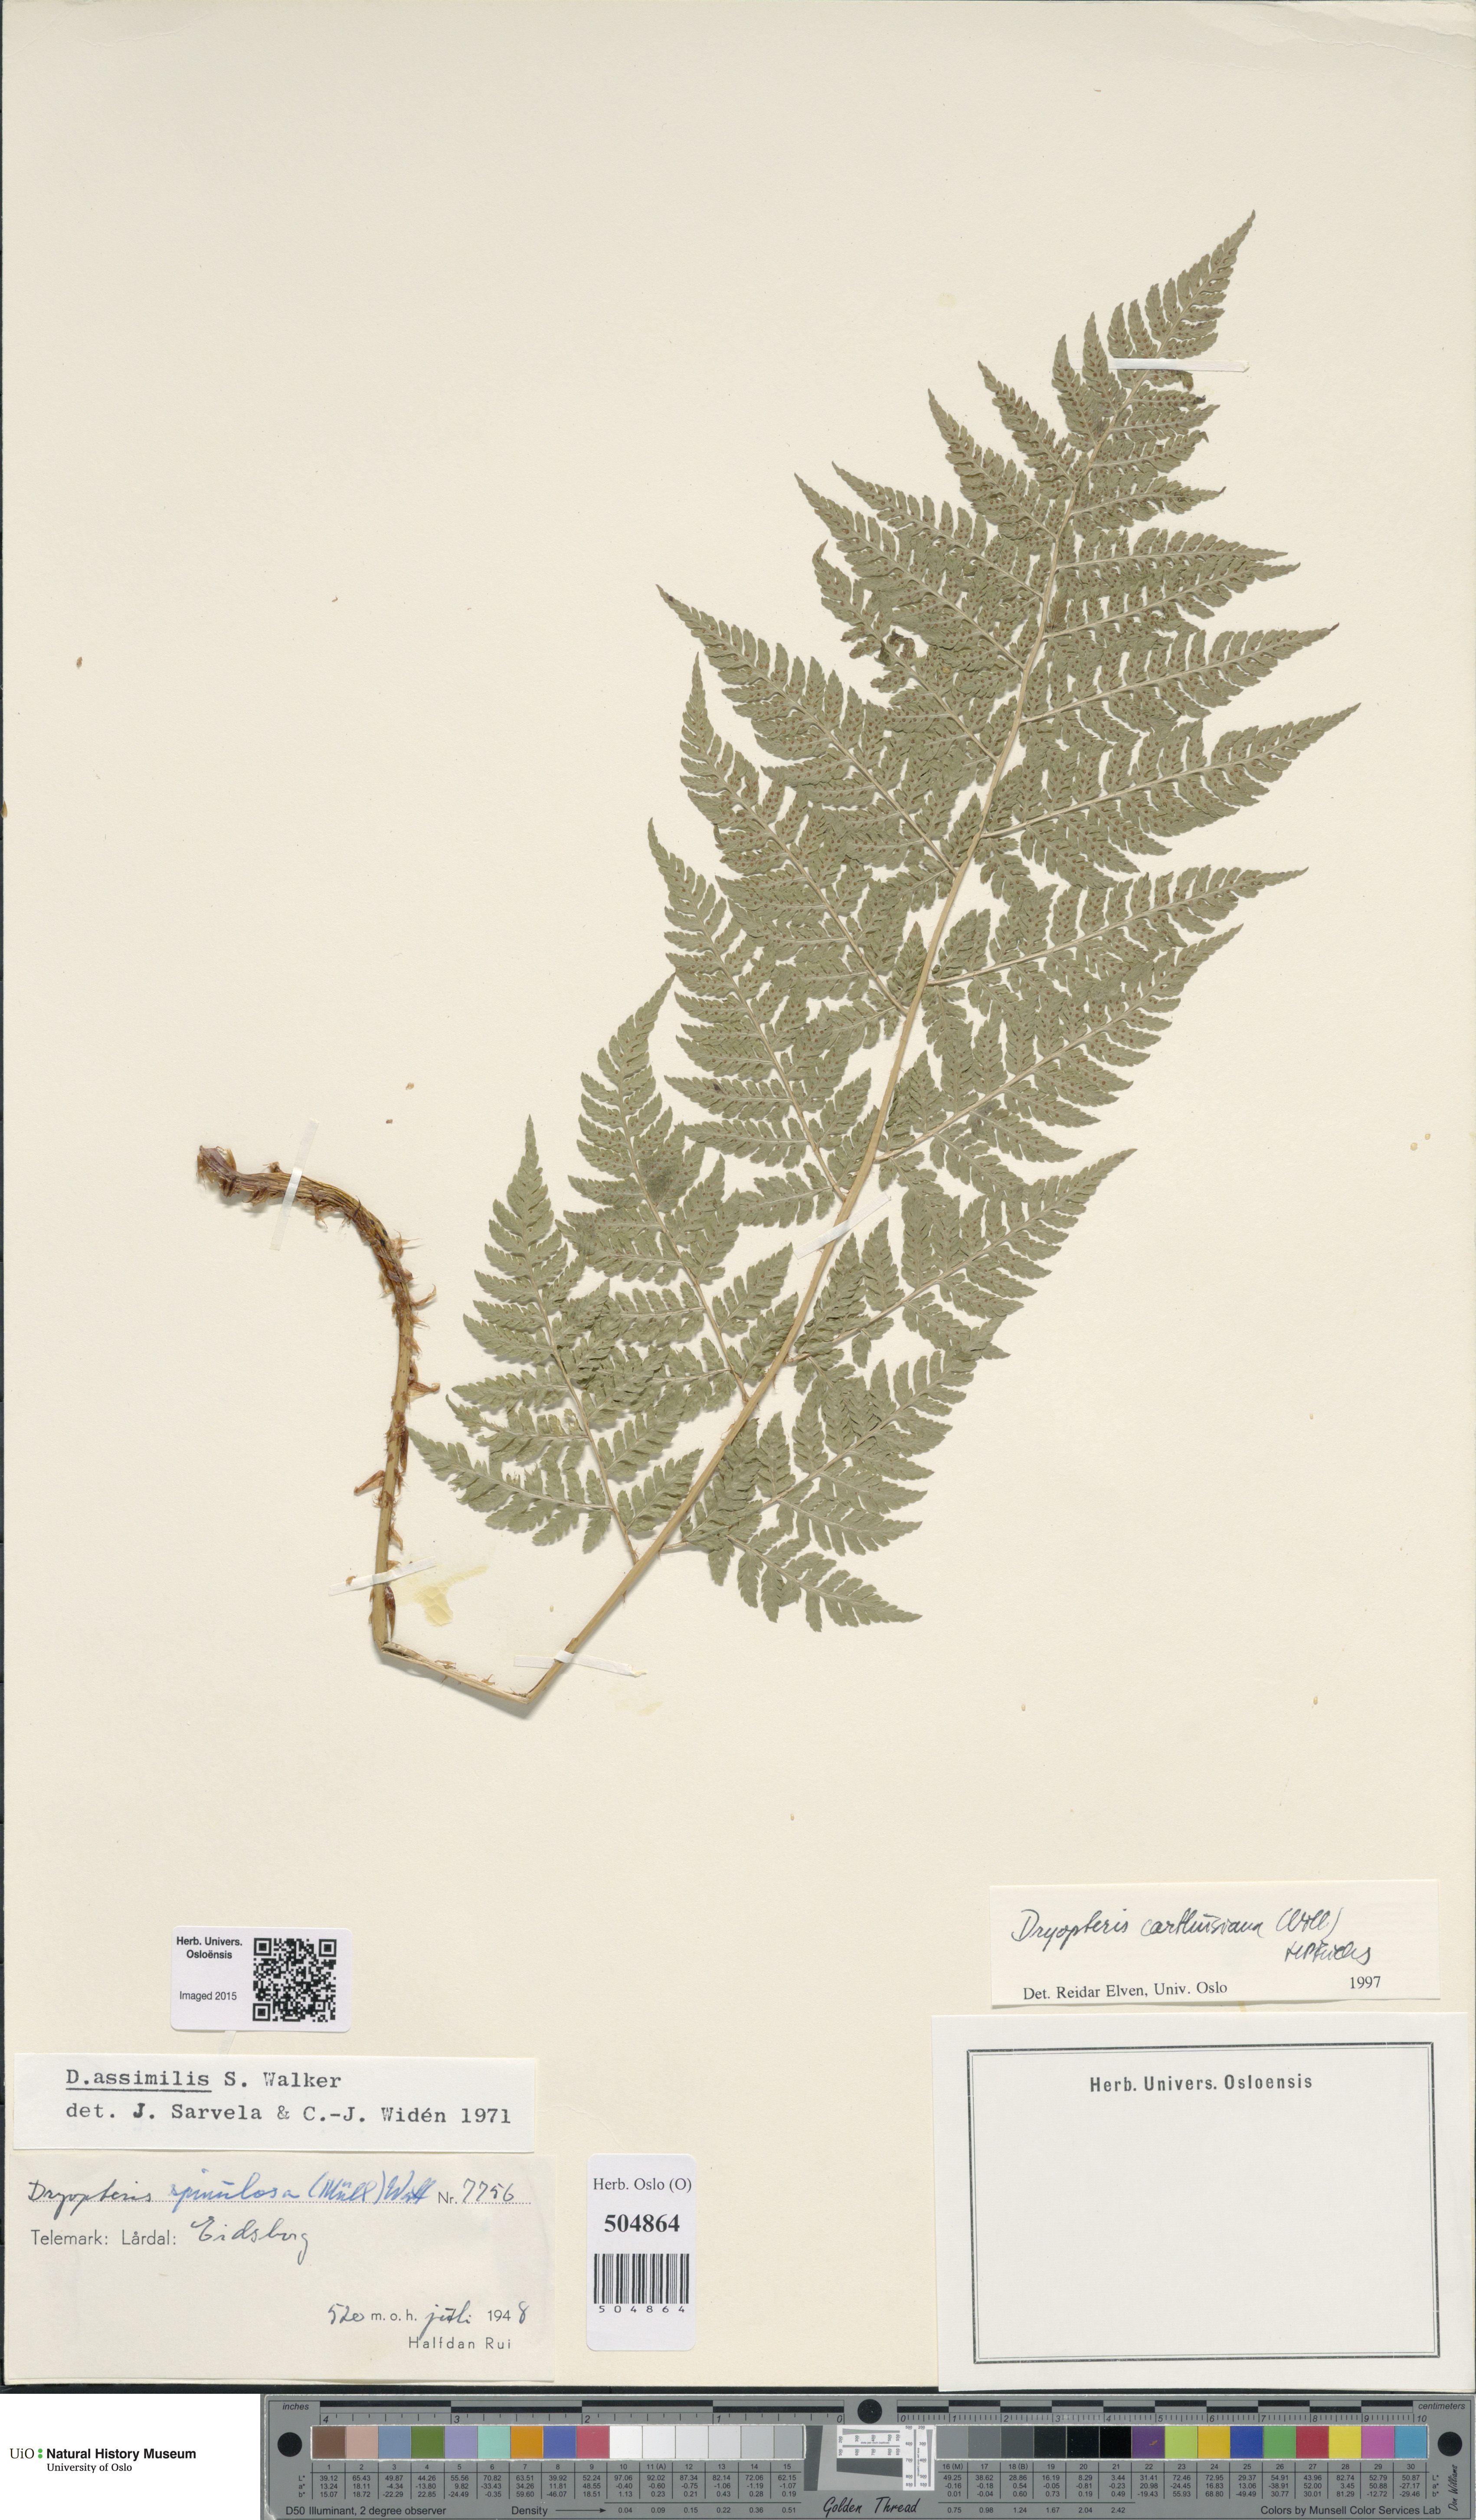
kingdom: Plantae
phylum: Tracheophyta
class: Polypodiopsida
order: Polypodiales
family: Dryopteridaceae
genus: Dryopteris
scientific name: Dryopteris carthusiana
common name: Narrow buckler-fern
